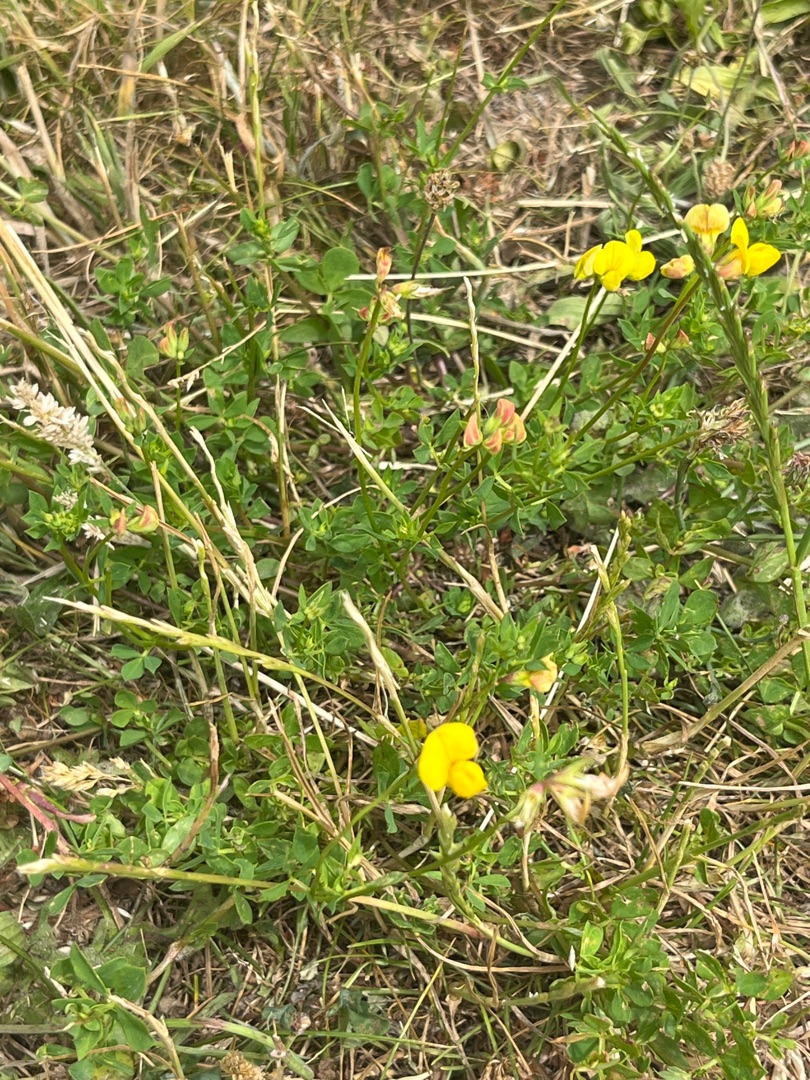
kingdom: Plantae
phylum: Tracheophyta
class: Magnoliopsida
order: Fabales
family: Fabaceae
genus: Lotus
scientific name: Lotus corniculatus
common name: Almindelig kællingetand
